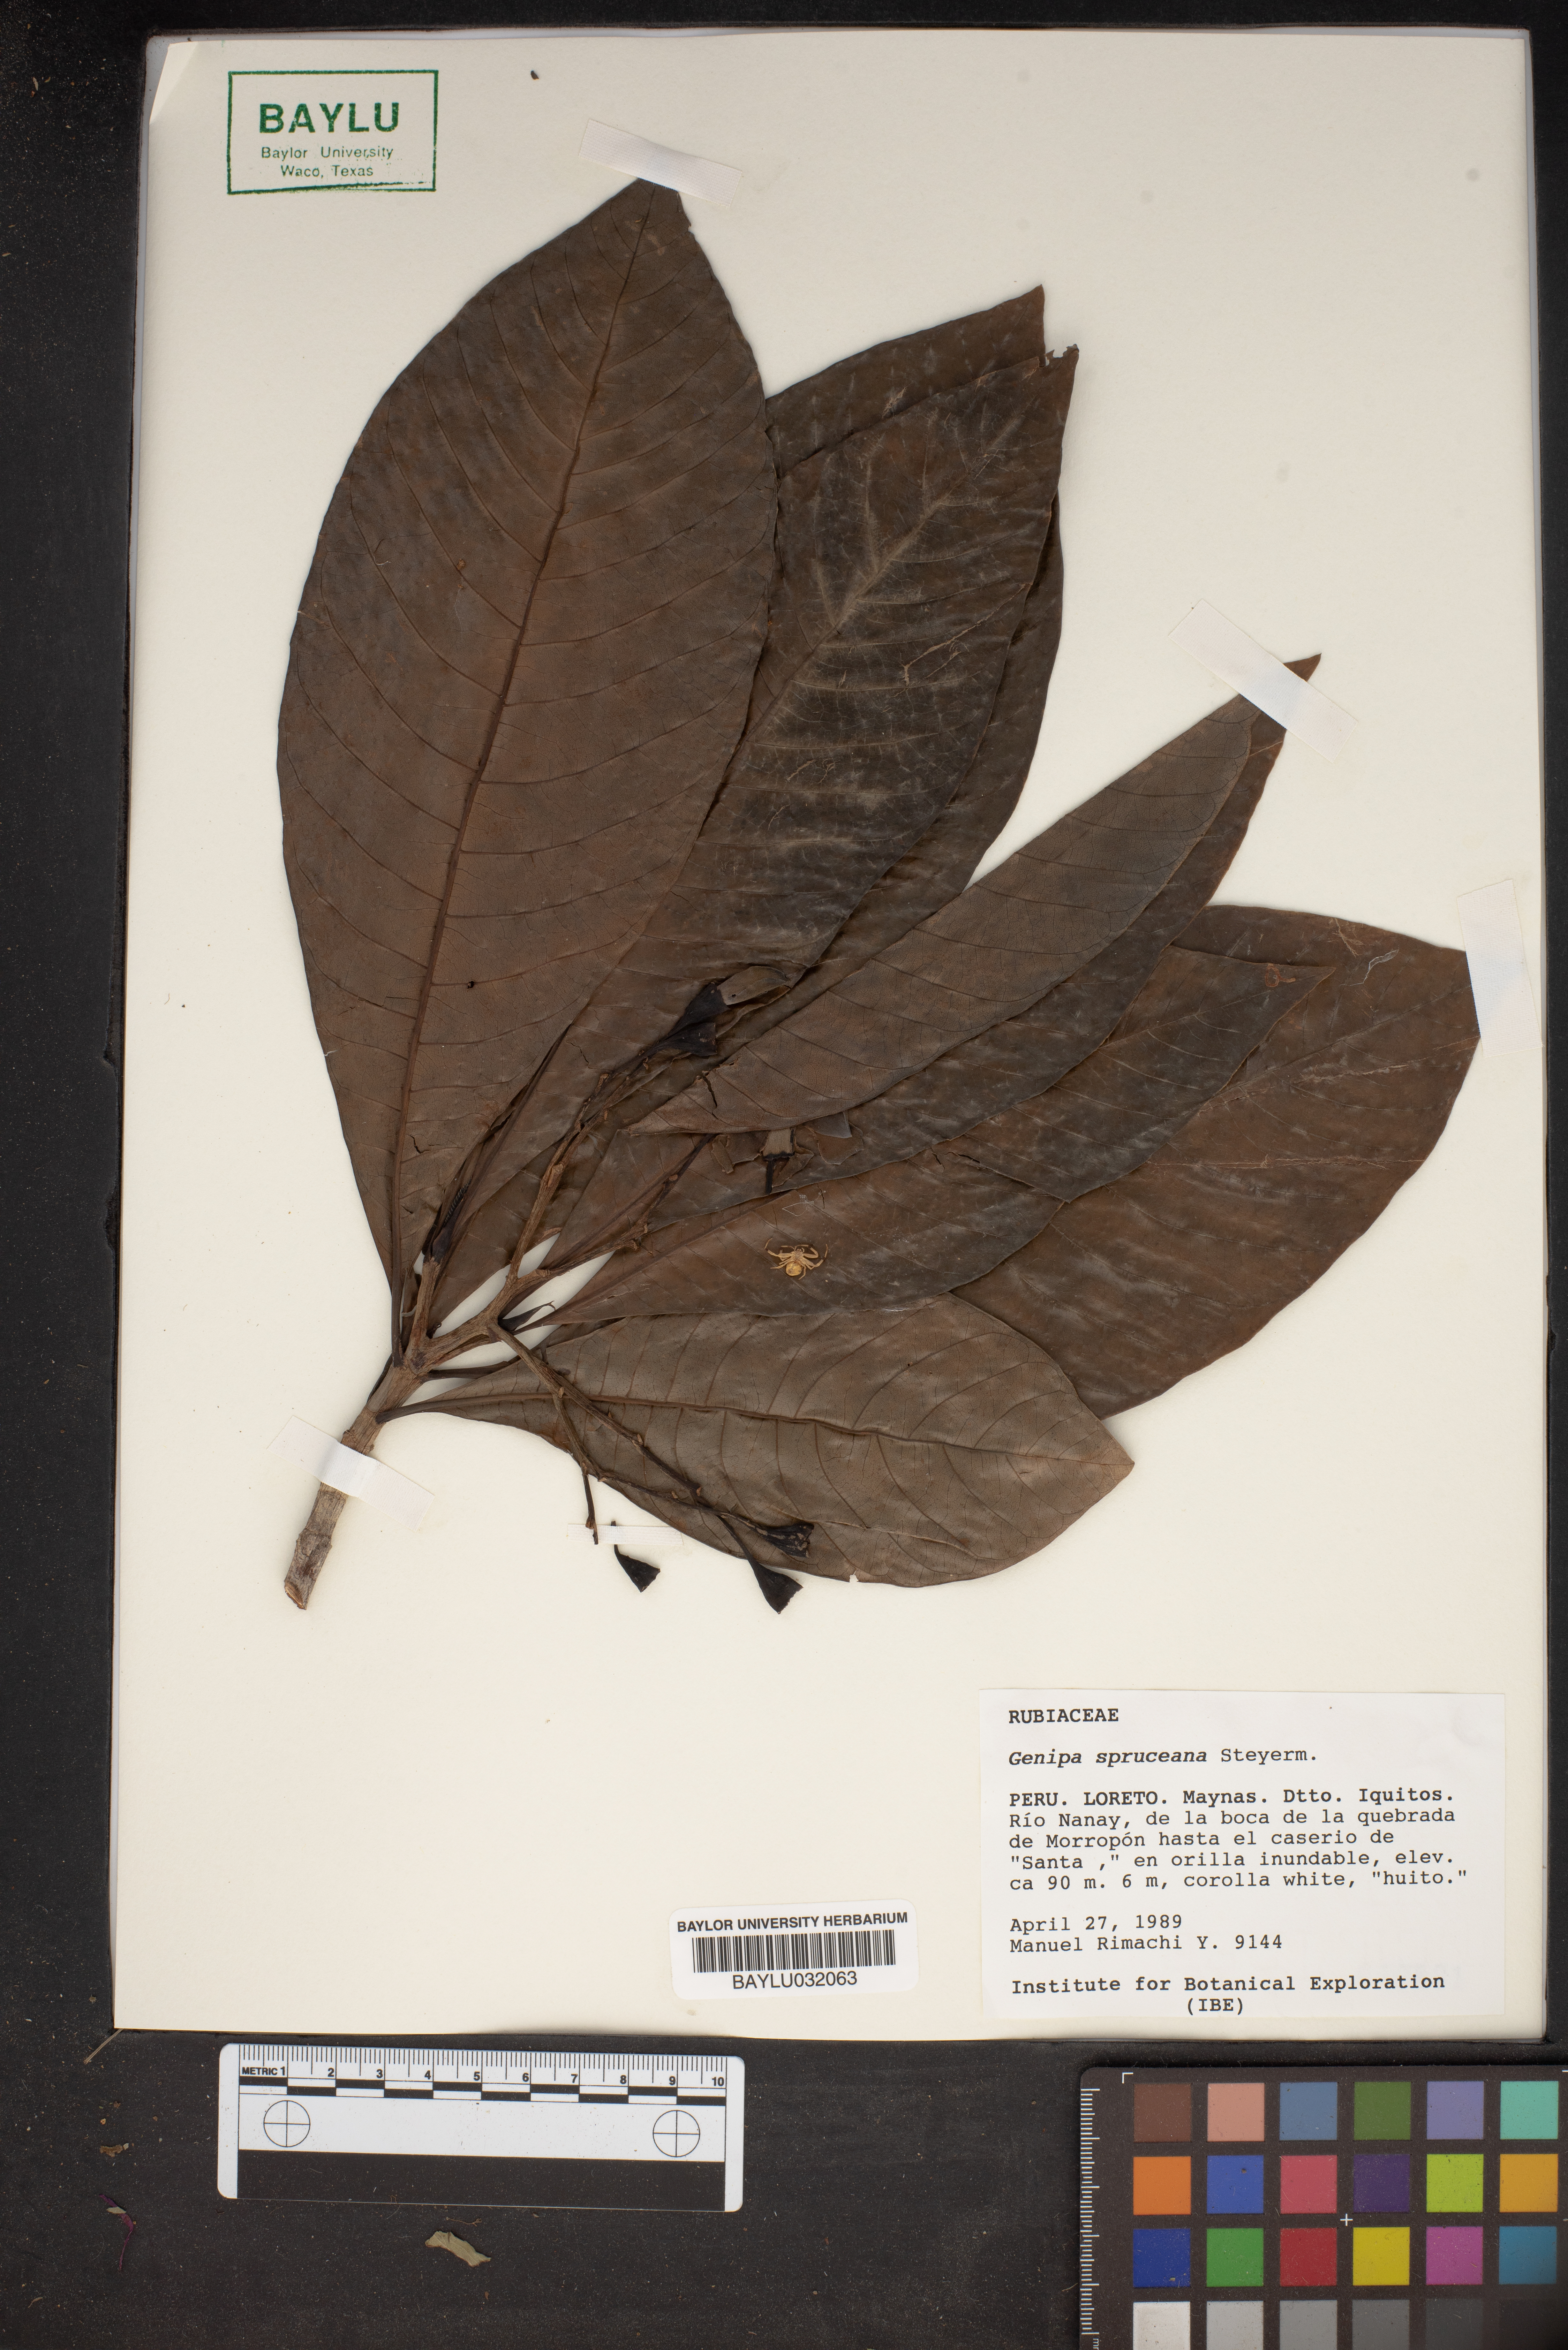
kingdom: Plantae
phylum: Tracheophyta
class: Magnoliopsida
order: Gentianales
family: Rubiaceae
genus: Genipa
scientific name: Genipa spruceana
